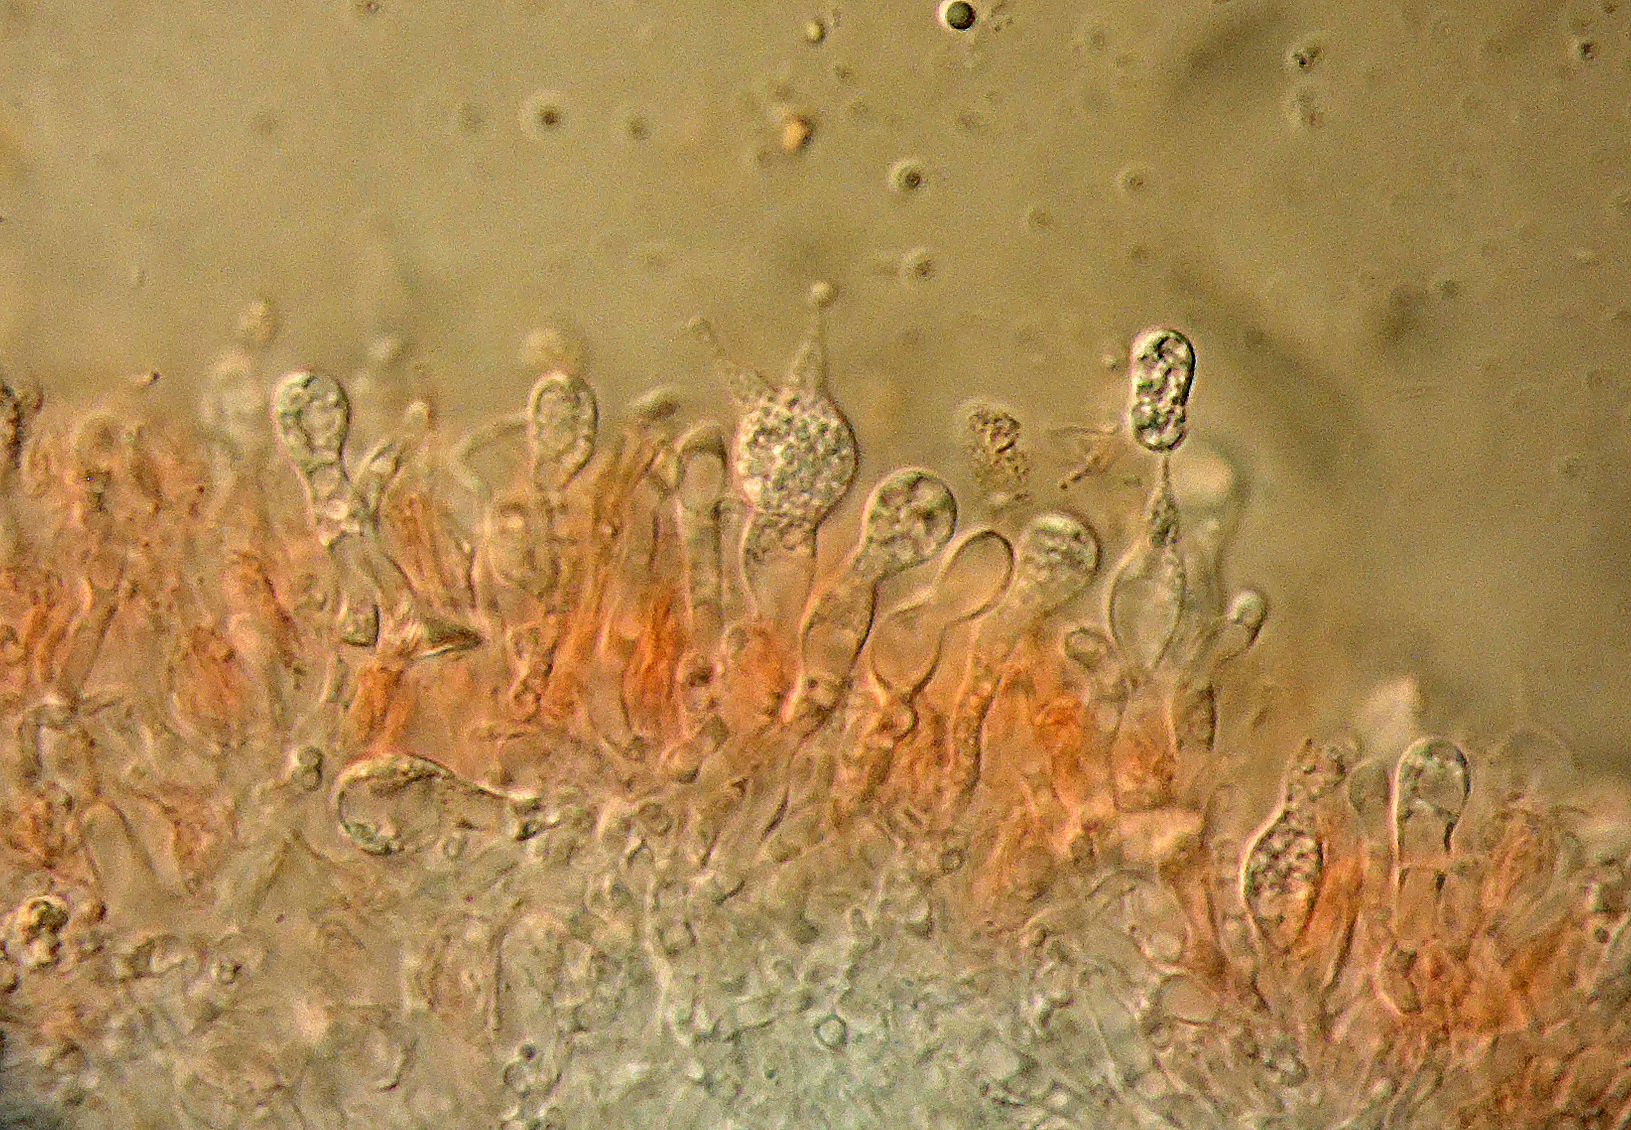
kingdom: Fungi
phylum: Basidiomycota
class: Agaricomycetes
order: Auriculariales
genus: Stypella
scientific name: Stypella subgelatinosa
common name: pigget bævregryn
